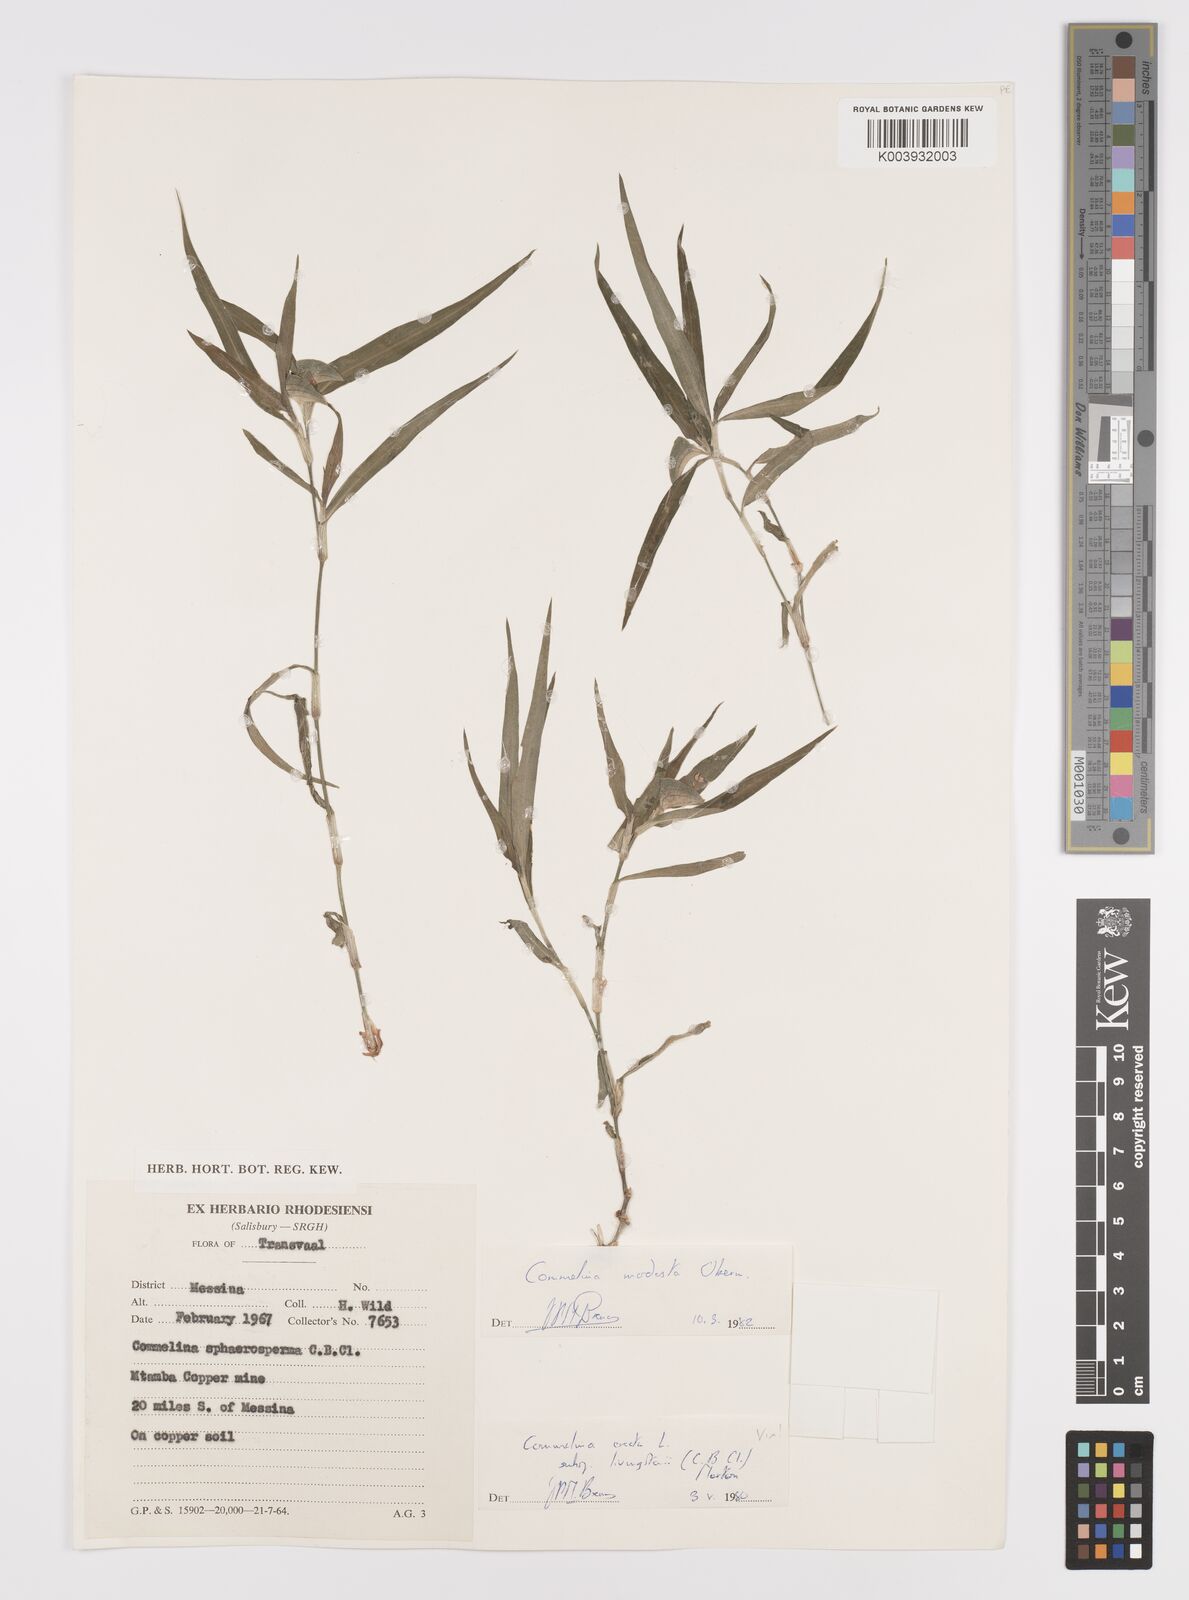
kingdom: Plantae
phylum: Tracheophyta
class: Liliopsida
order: Commelinales
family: Commelinaceae
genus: Commelina
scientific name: Commelina modesta
